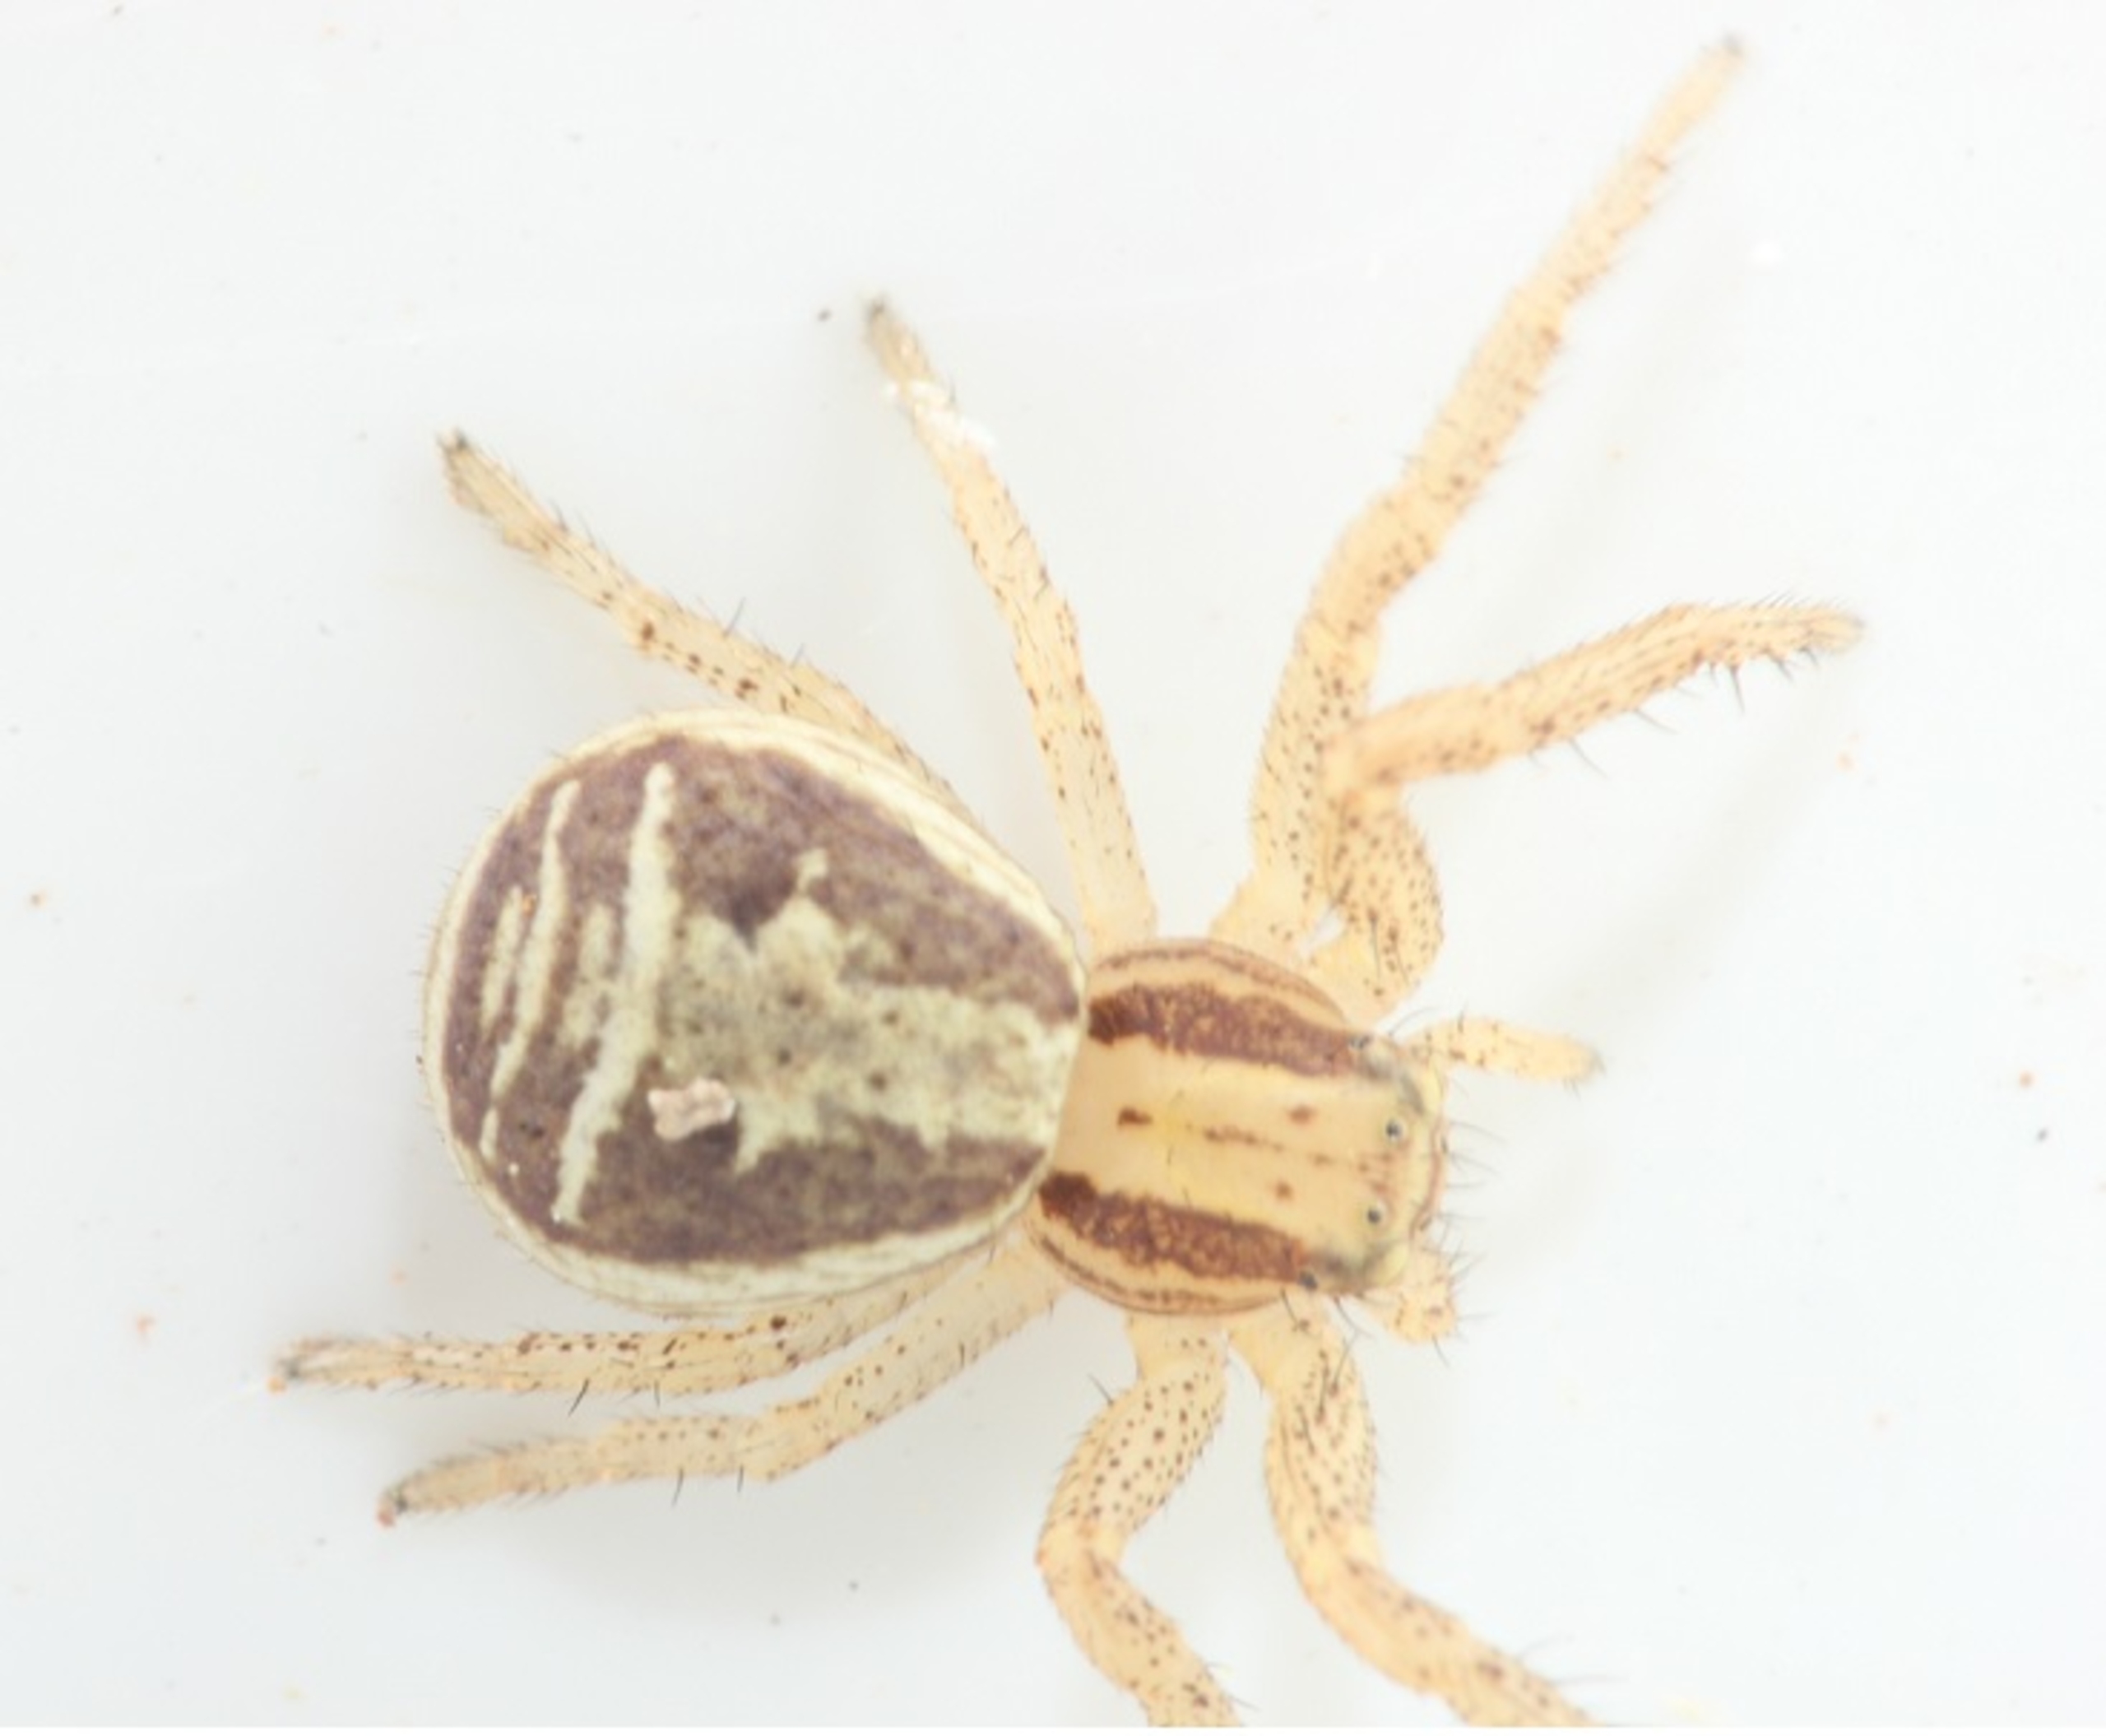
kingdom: Animalia
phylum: Arthropoda
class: Arachnida
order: Araneae
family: Thomisidae
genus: Xysticus
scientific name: Xysticus ulmi
